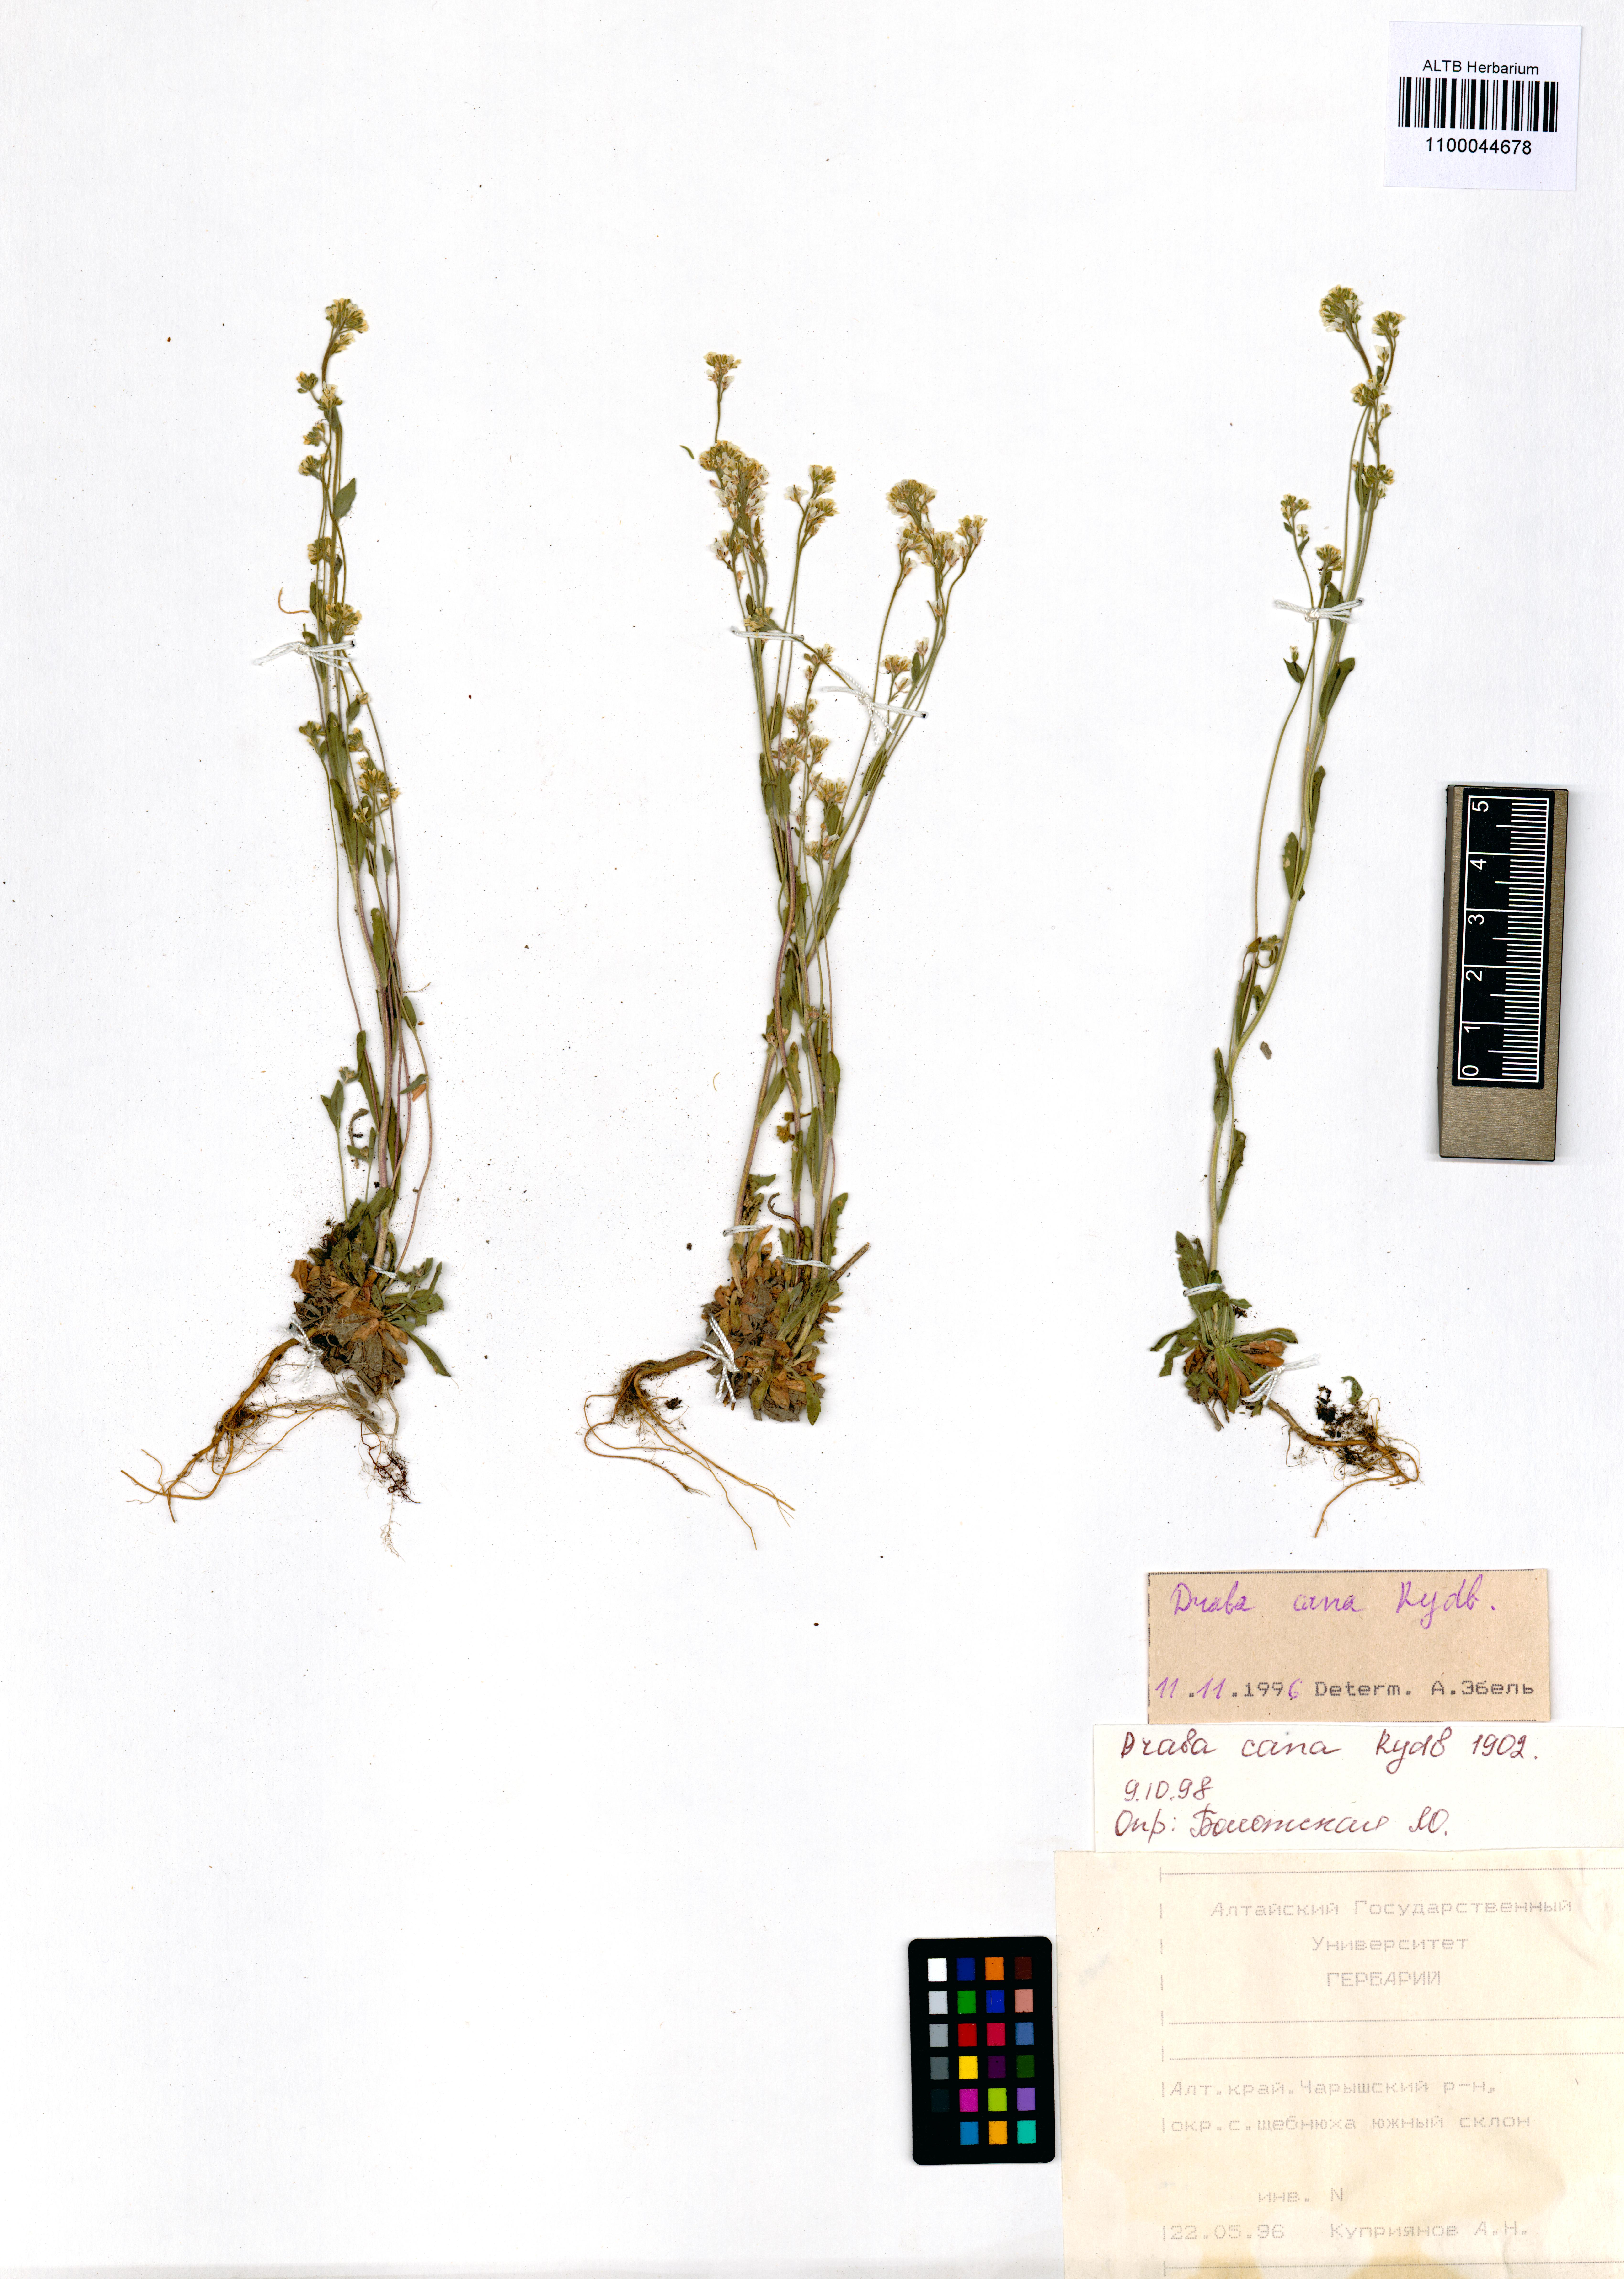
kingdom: Plantae
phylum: Tracheophyta
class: Magnoliopsida
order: Brassicales
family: Brassicaceae
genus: Draba
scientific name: Draba cana
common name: Hoary draba
